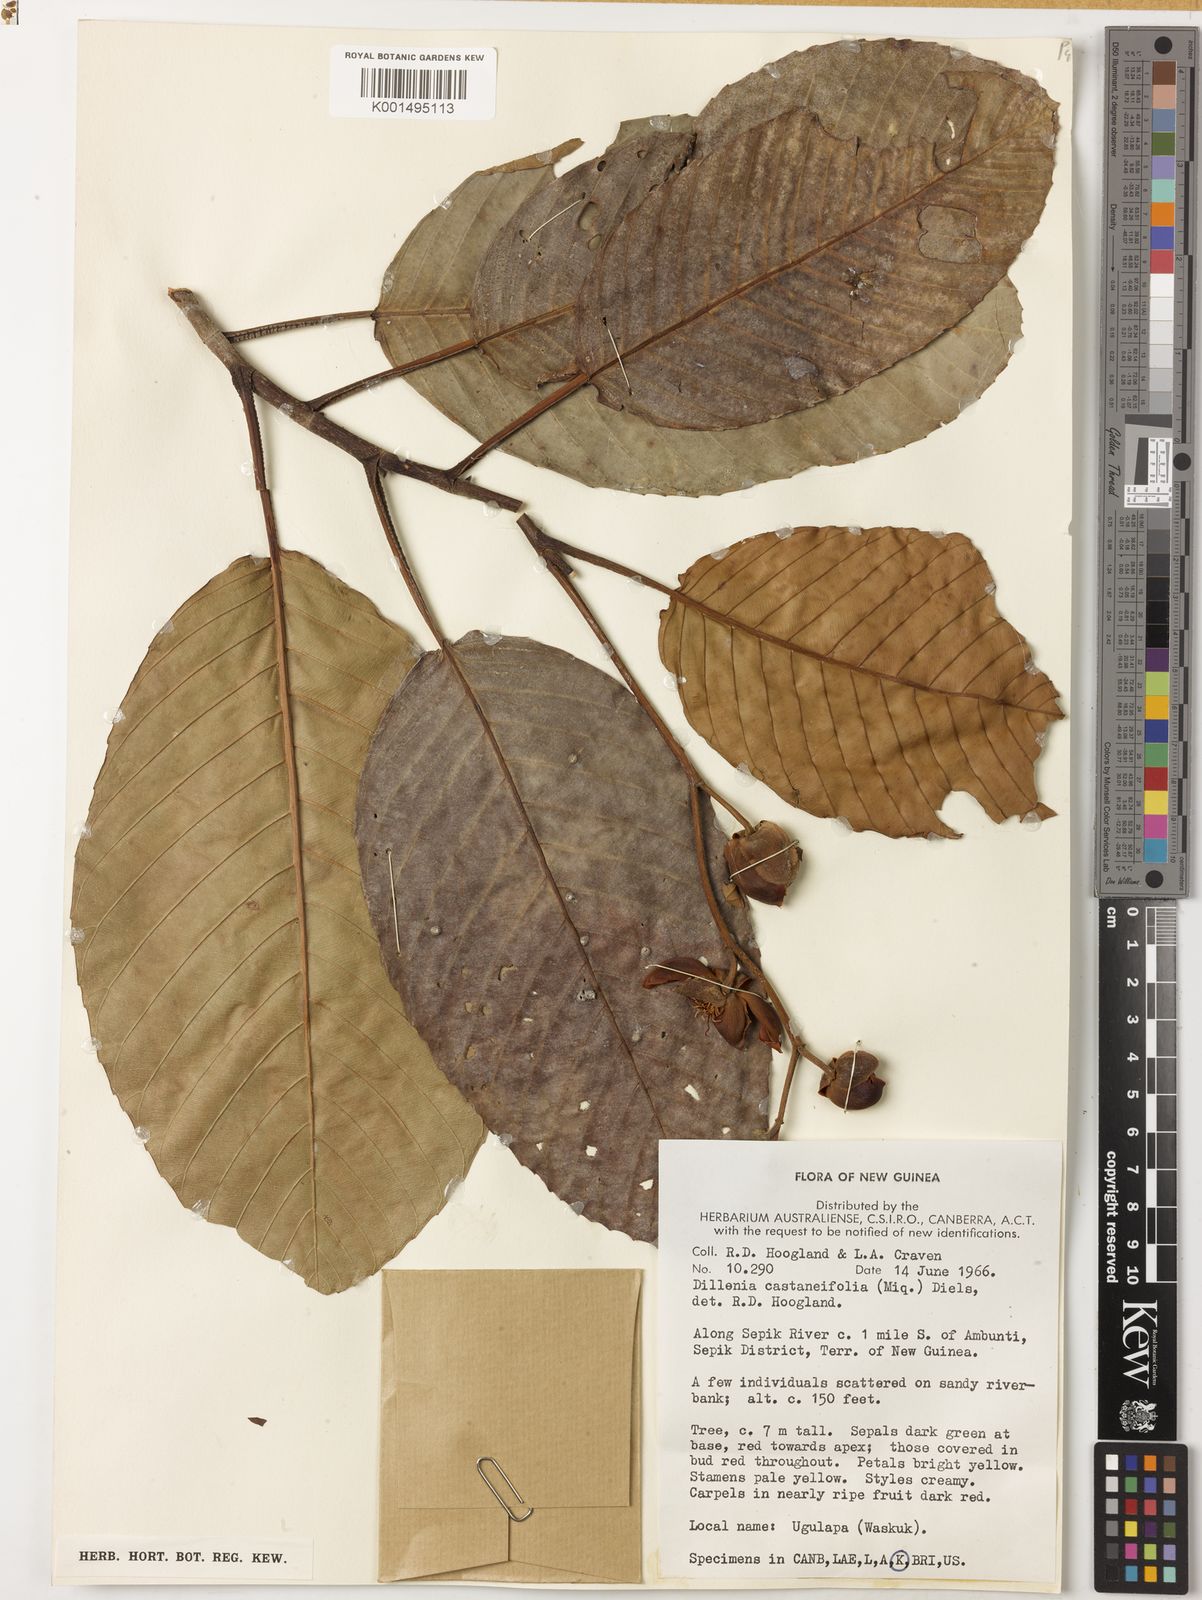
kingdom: Plantae
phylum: Tracheophyta
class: Magnoliopsida
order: Dilleniales
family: Dilleniaceae
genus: Dillenia
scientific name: Dillenia castaneifolia
